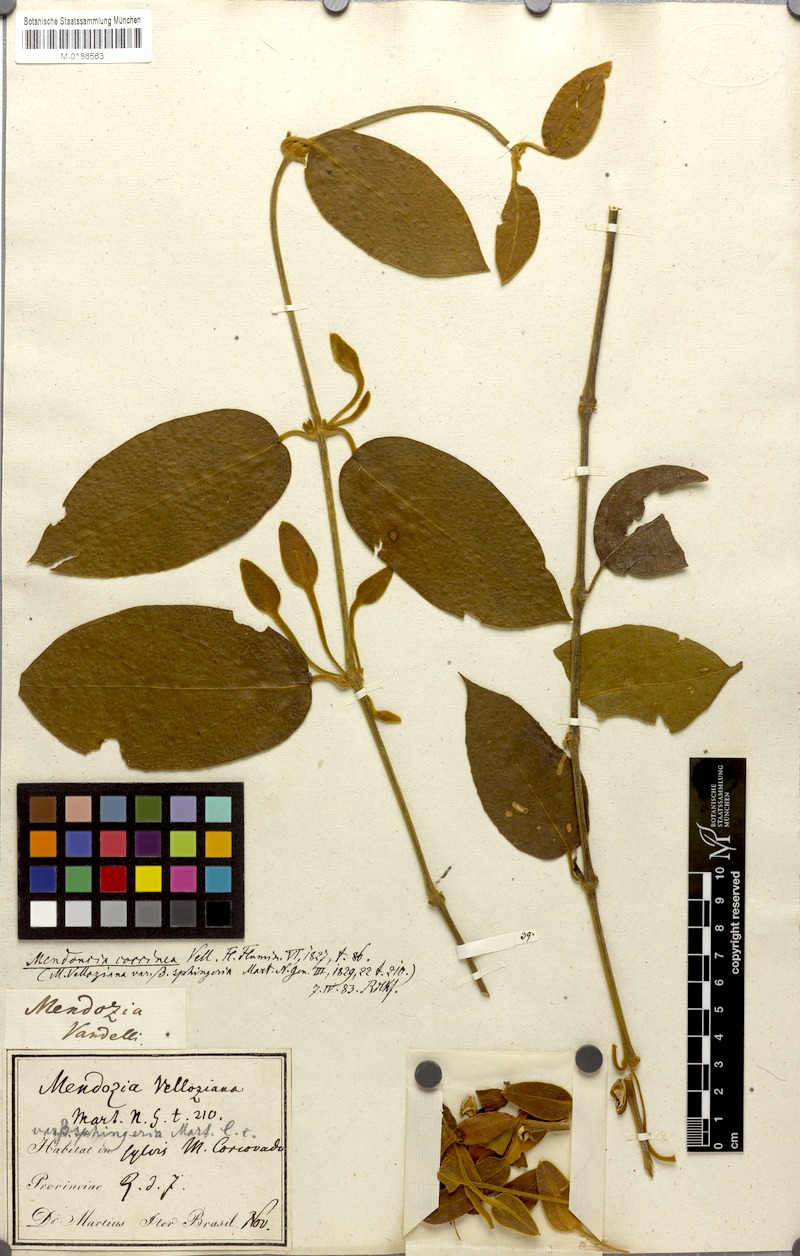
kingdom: Plantae
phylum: Tracheophyta
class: Magnoliopsida
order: Lamiales
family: Acanthaceae
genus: Mendoncia
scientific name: Mendoncia coccinea
